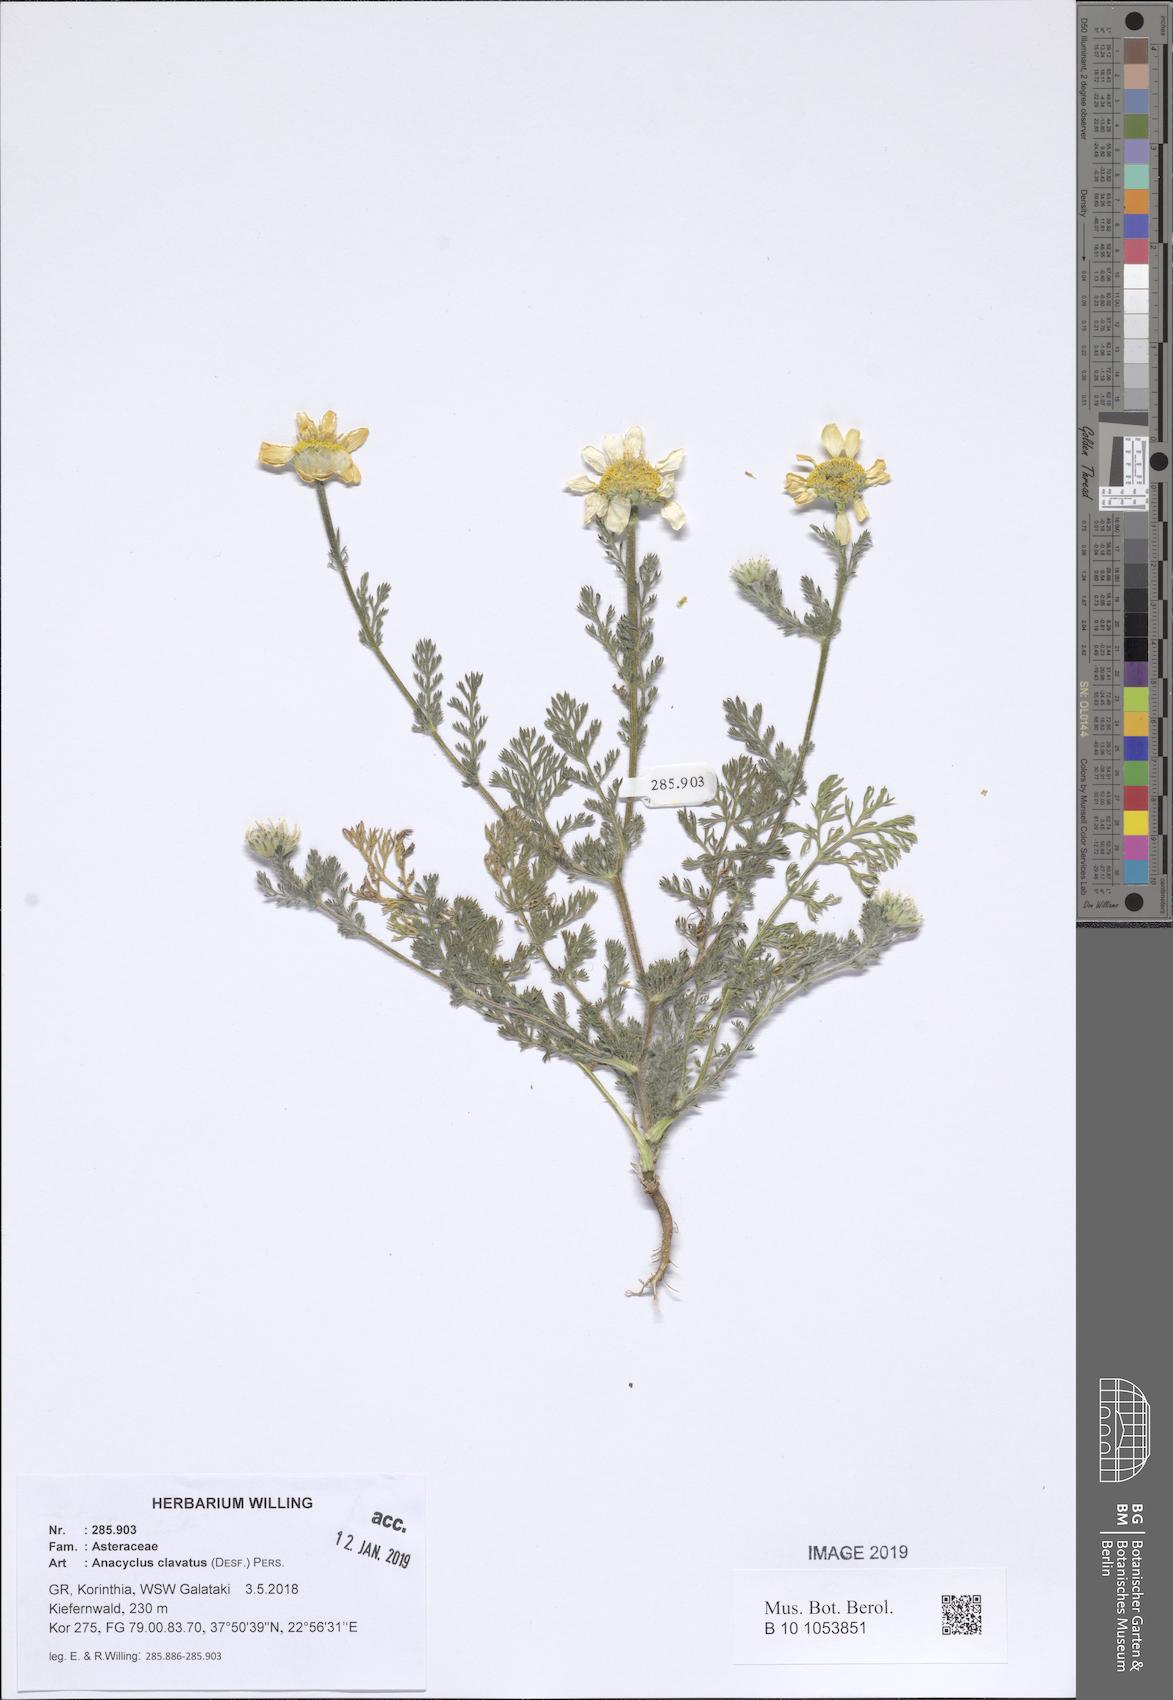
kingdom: Plantae
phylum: Tracheophyta
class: Magnoliopsida
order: Asterales
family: Asteraceae
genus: Anacyclus
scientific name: Anacyclus clavatus
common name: Whitebuttons
